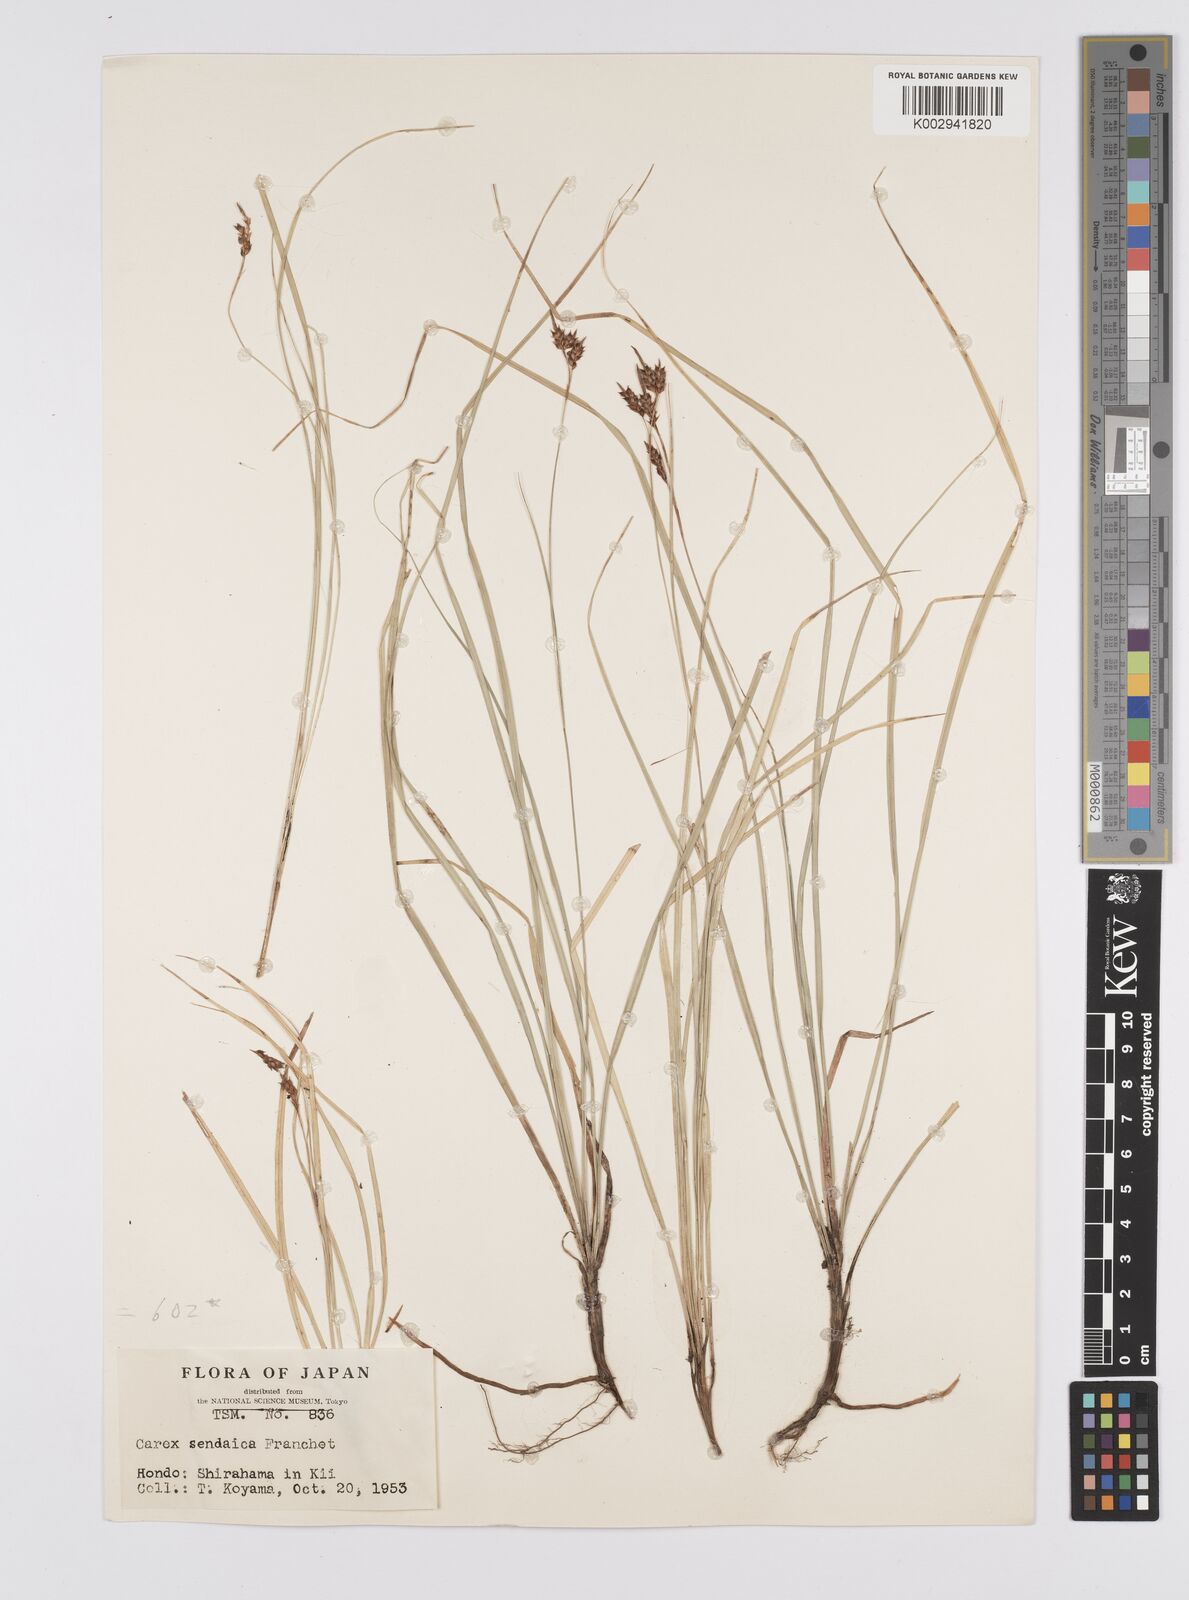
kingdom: Plantae
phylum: Tracheophyta
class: Liliopsida
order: Poales
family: Cyperaceae
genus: Carex
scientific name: Carex brunnea
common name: Greater brown sedge
